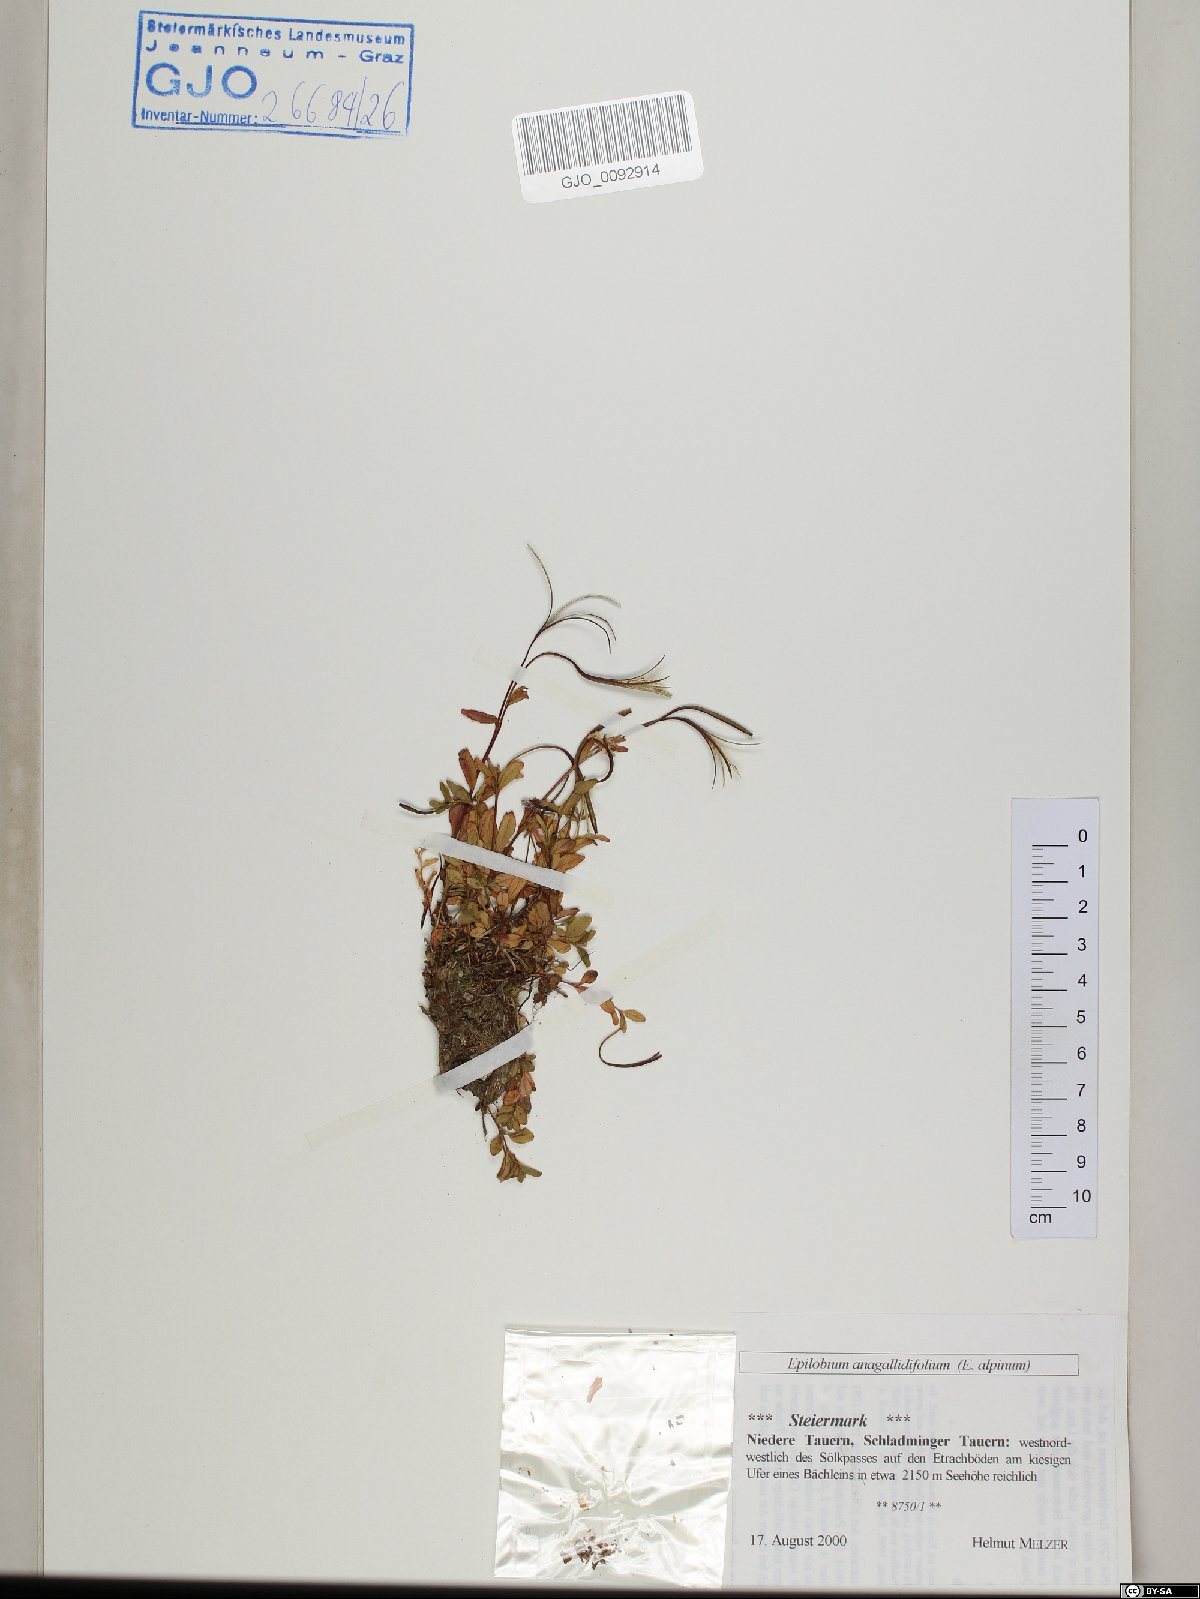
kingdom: Plantae
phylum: Tracheophyta
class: Magnoliopsida
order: Myrtales
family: Onagraceae
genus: Epilobium
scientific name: Epilobium anagallidifolium
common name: Alpine willowherb
